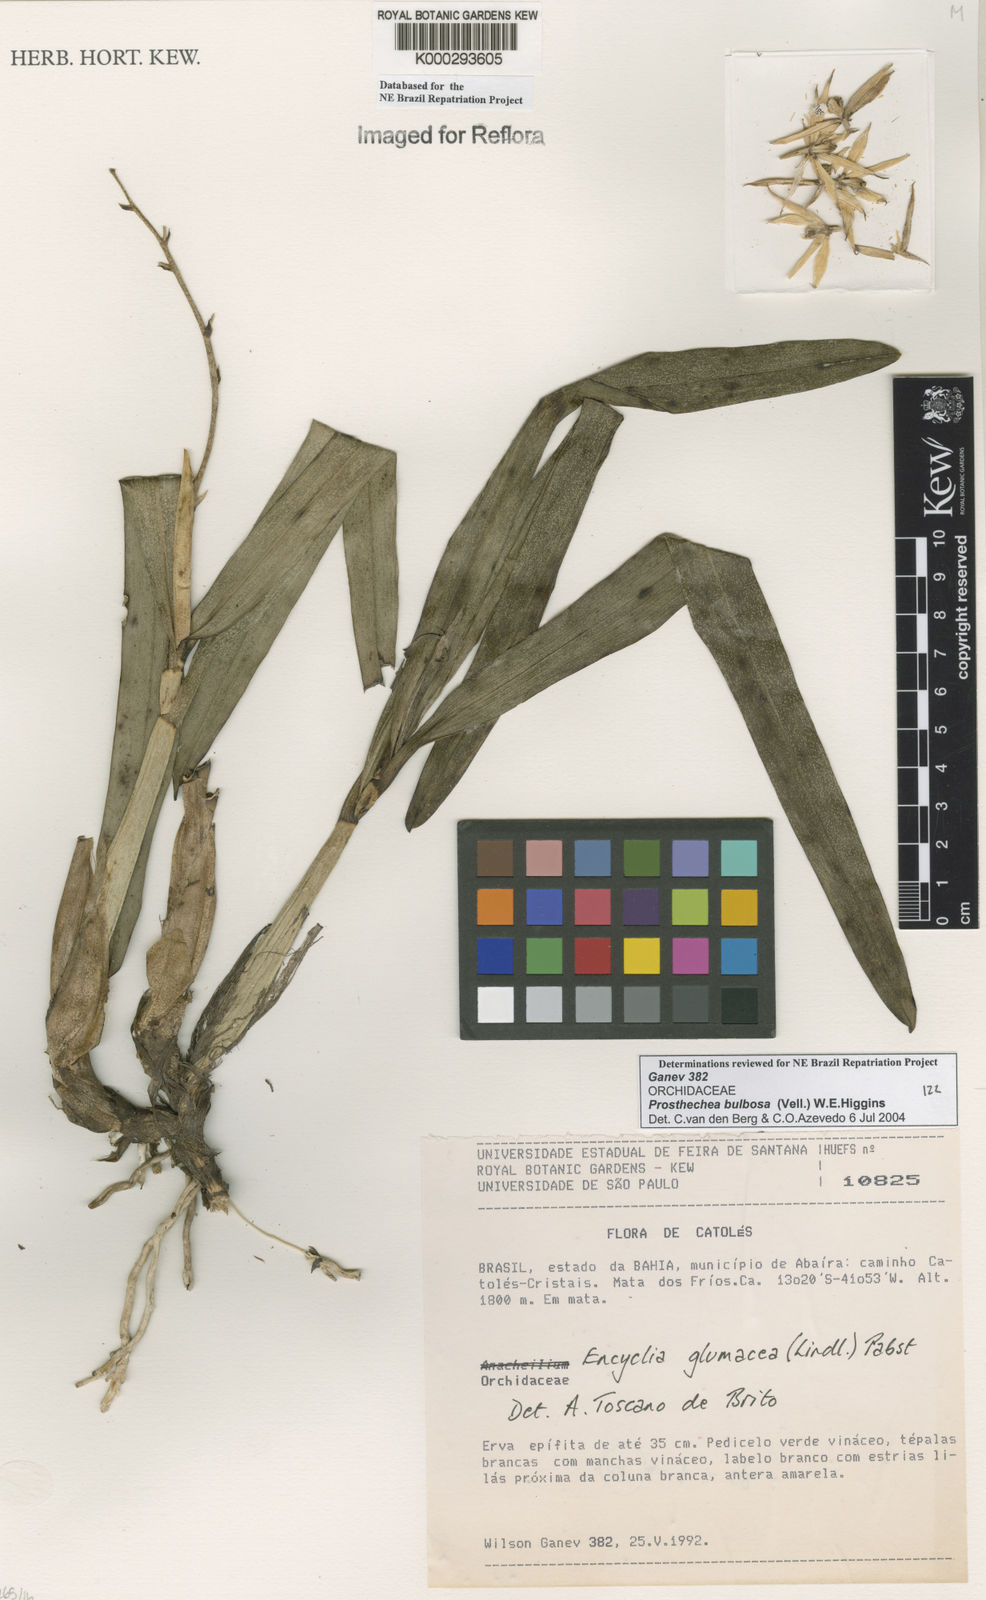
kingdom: Plantae
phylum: Tracheophyta
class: Liliopsida
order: Asparagales
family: Orchidaceae
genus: Prosthechea
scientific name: Prosthechea bulbosa
